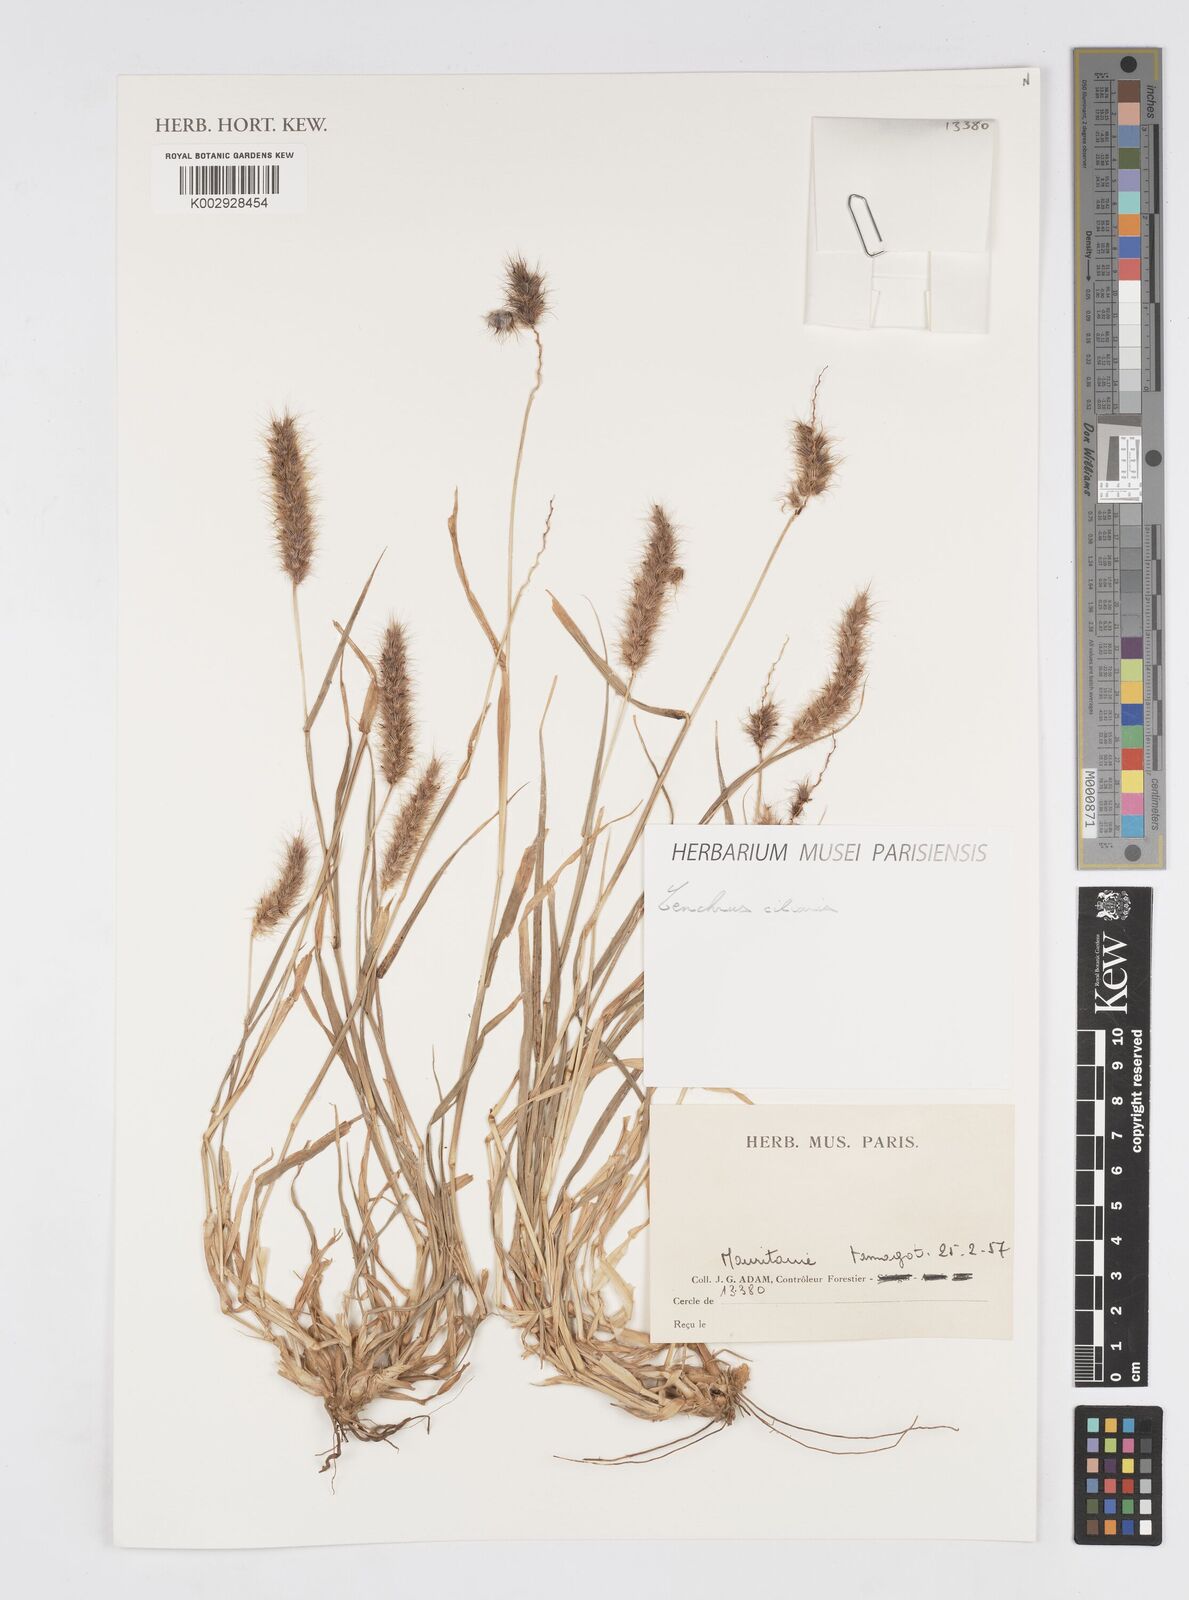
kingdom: Plantae
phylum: Tracheophyta
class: Liliopsida
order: Poales
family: Poaceae
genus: Cenchrus
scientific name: Cenchrus ciliaris
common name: Buffelgrass
